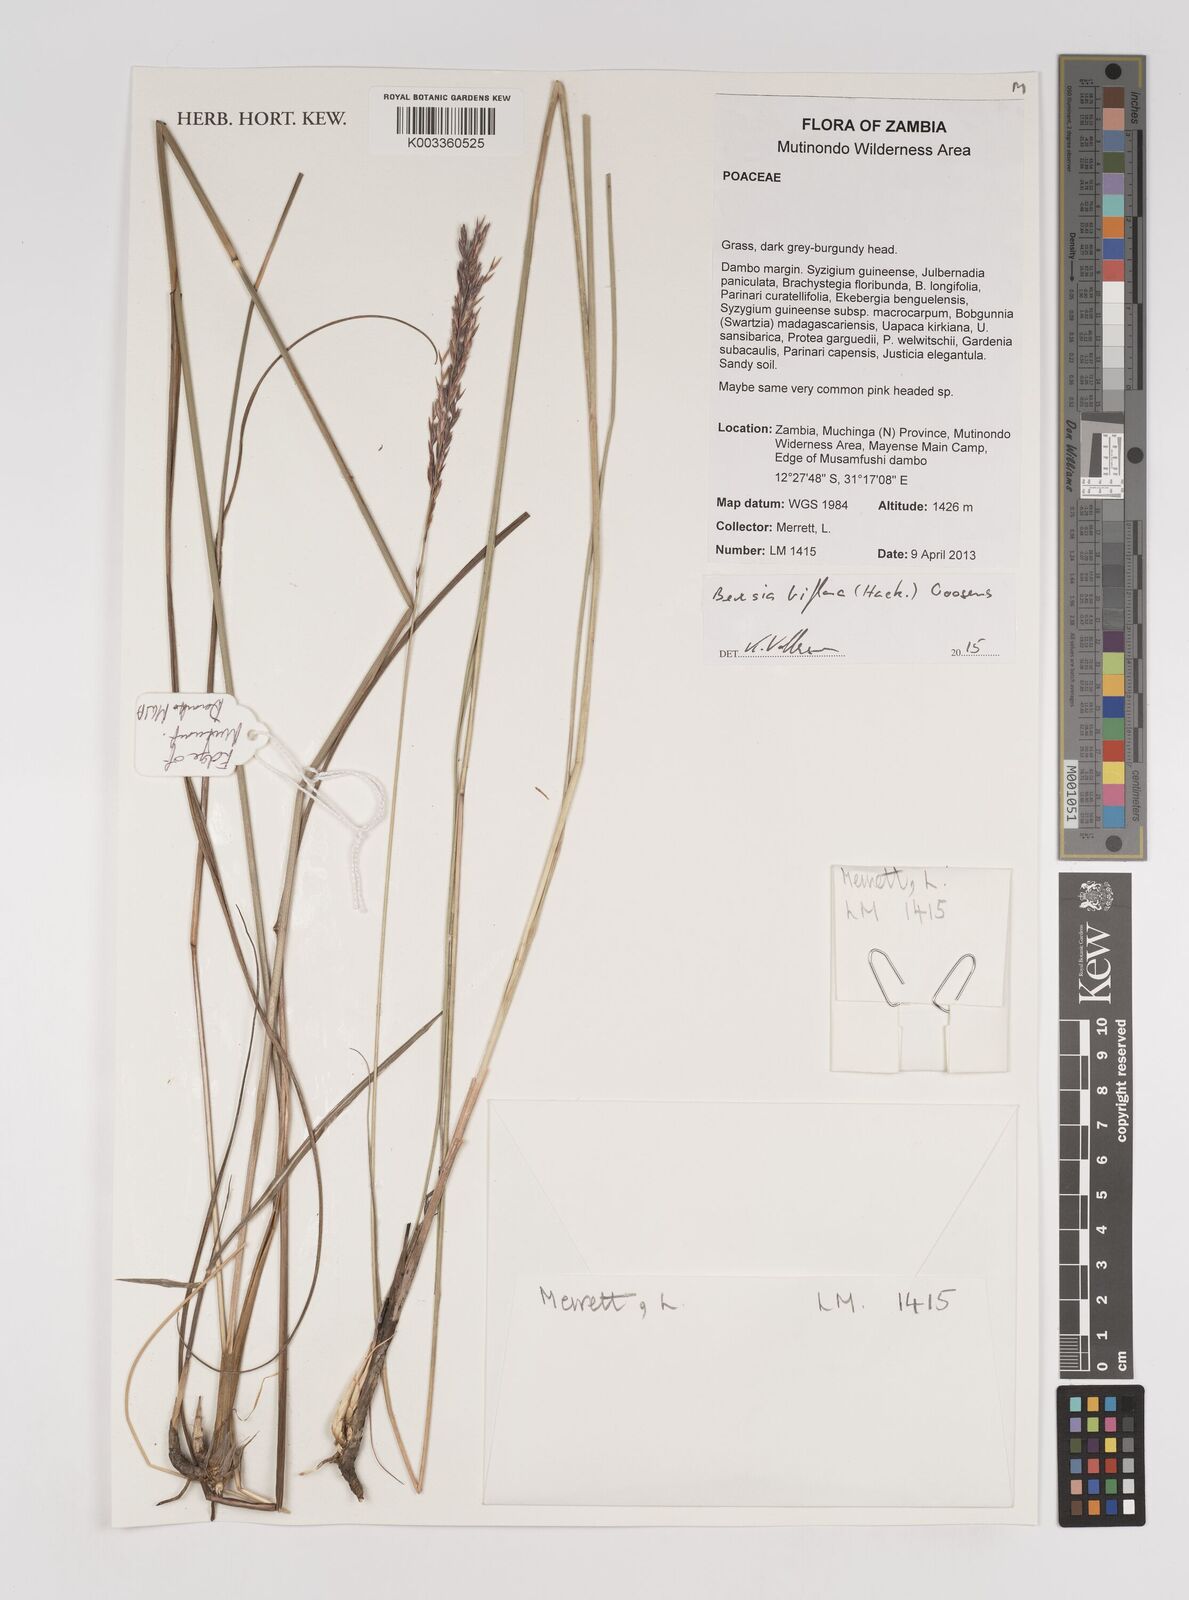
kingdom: Plantae
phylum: Tracheophyta
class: Liliopsida
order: Poales
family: Poaceae
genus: Bewsia
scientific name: Bewsia biflora
